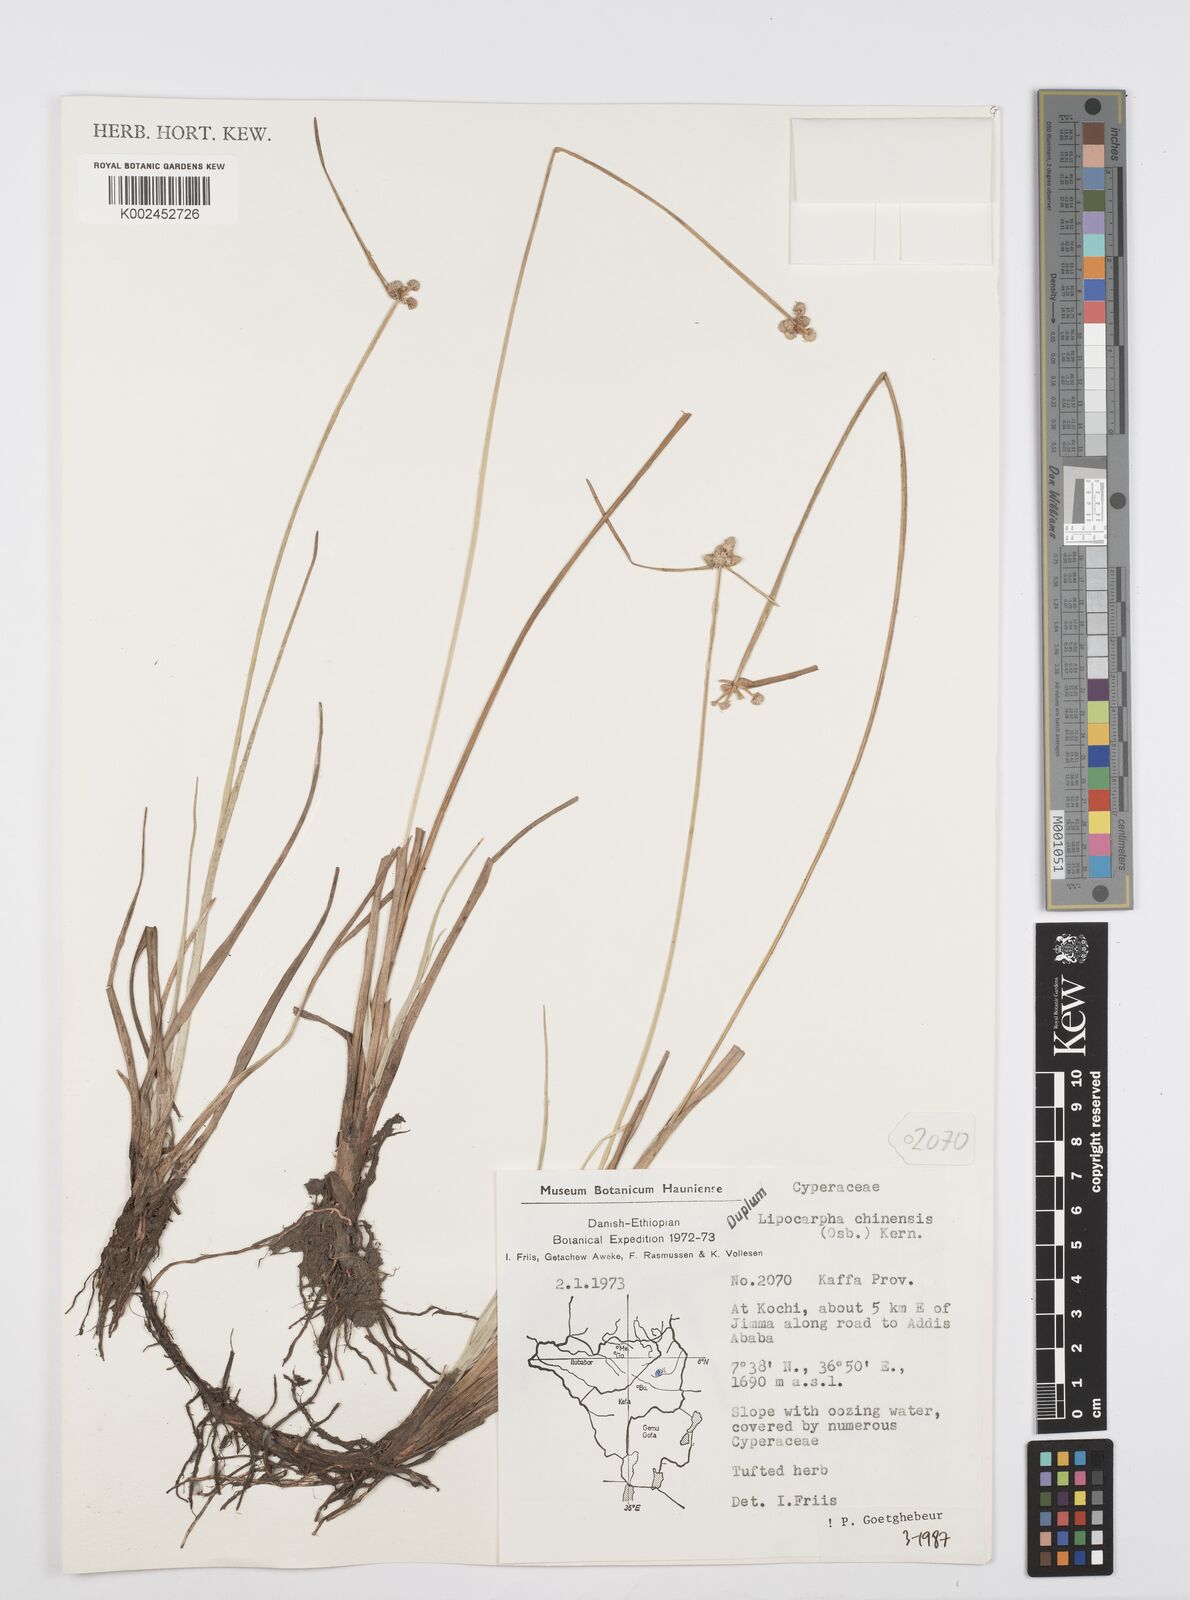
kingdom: Plantae
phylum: Tracheophyta
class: Liliopsida
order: Poales
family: Cyperaceae
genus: Cyperus
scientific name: Cyperus albescens
